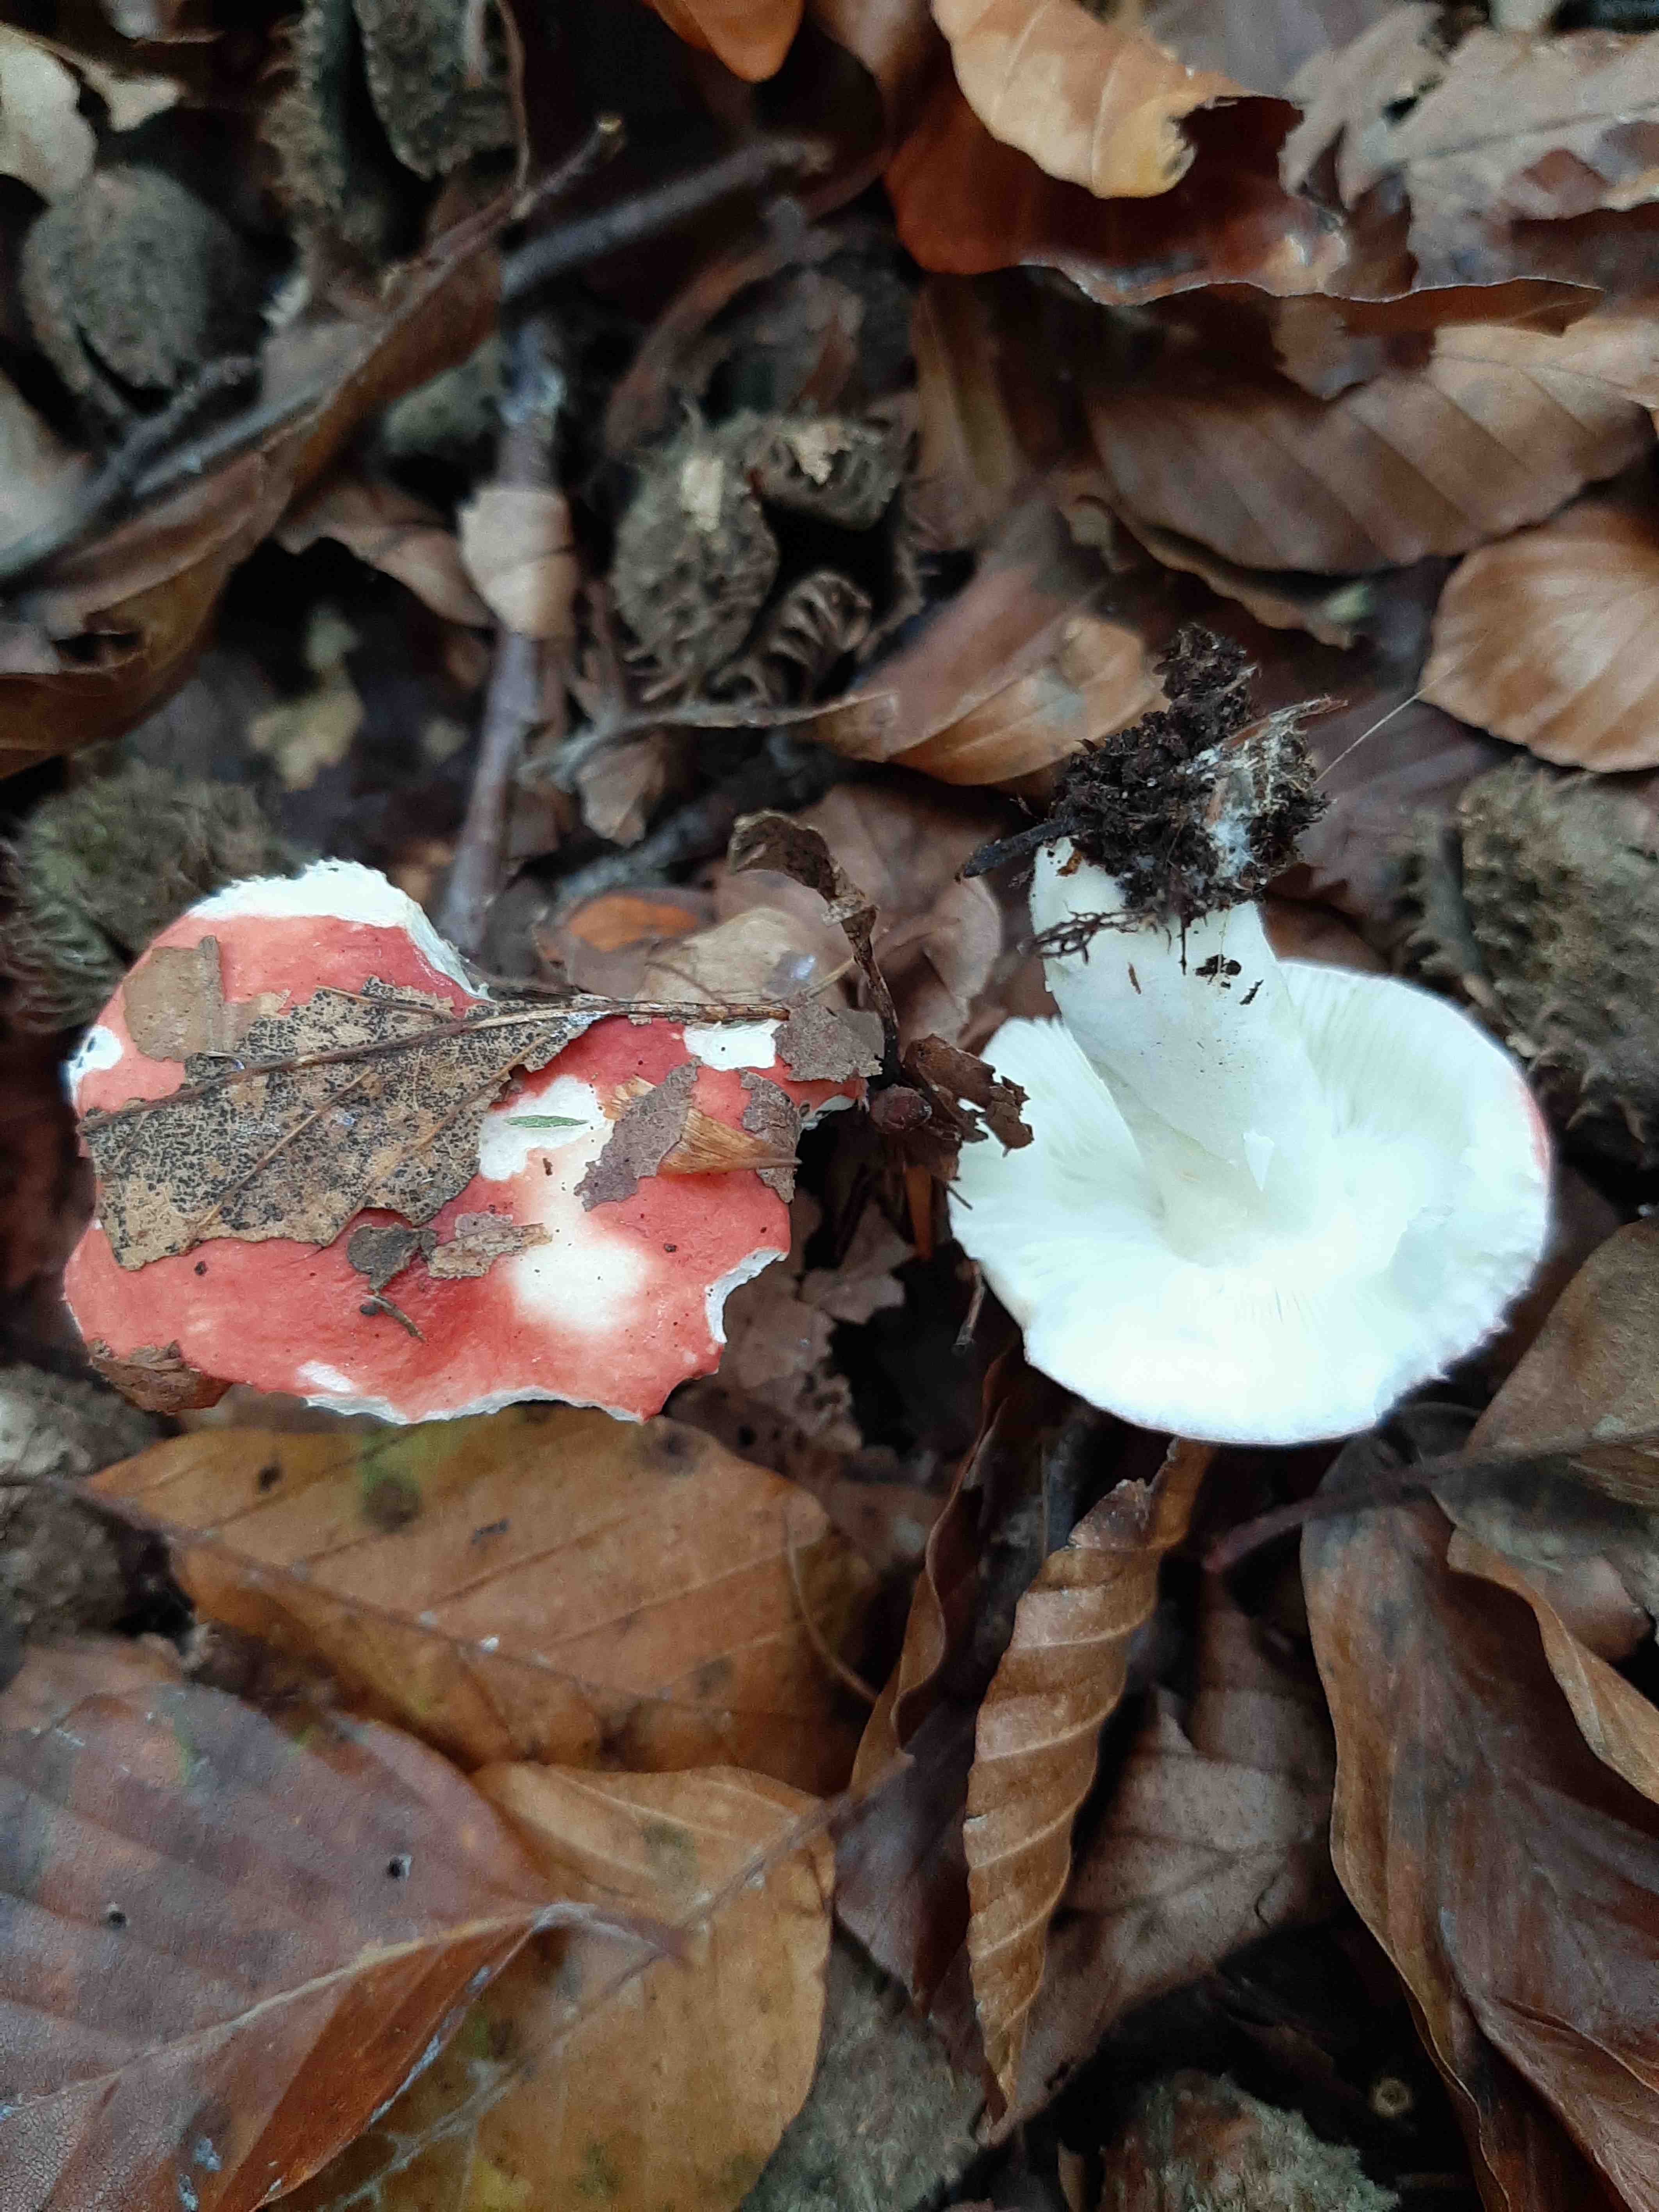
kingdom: Fungi
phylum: Basidiomycota
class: Agaricomycetes
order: Russulales
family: Russulaceae
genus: Russula
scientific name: Russula
